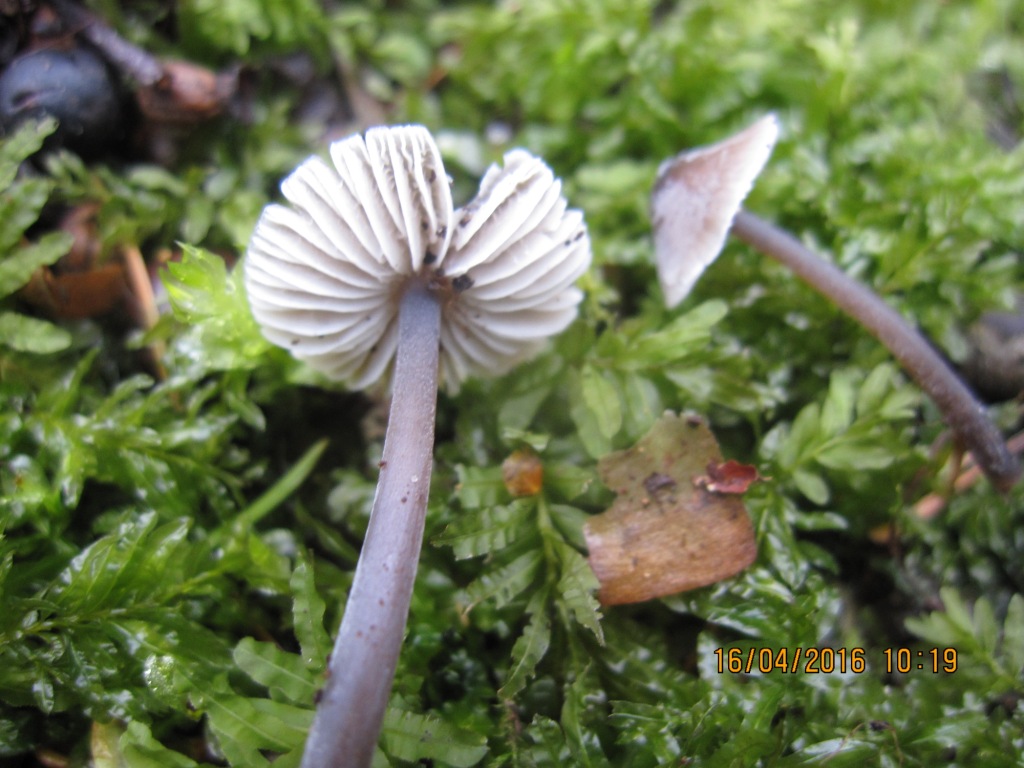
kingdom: Fungi
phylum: Basidiomycota
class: Agaricomycetes
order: Agaricales
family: Mycenaceae
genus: Mycena
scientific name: Mycena leptocephala
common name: klor-huesvamp
